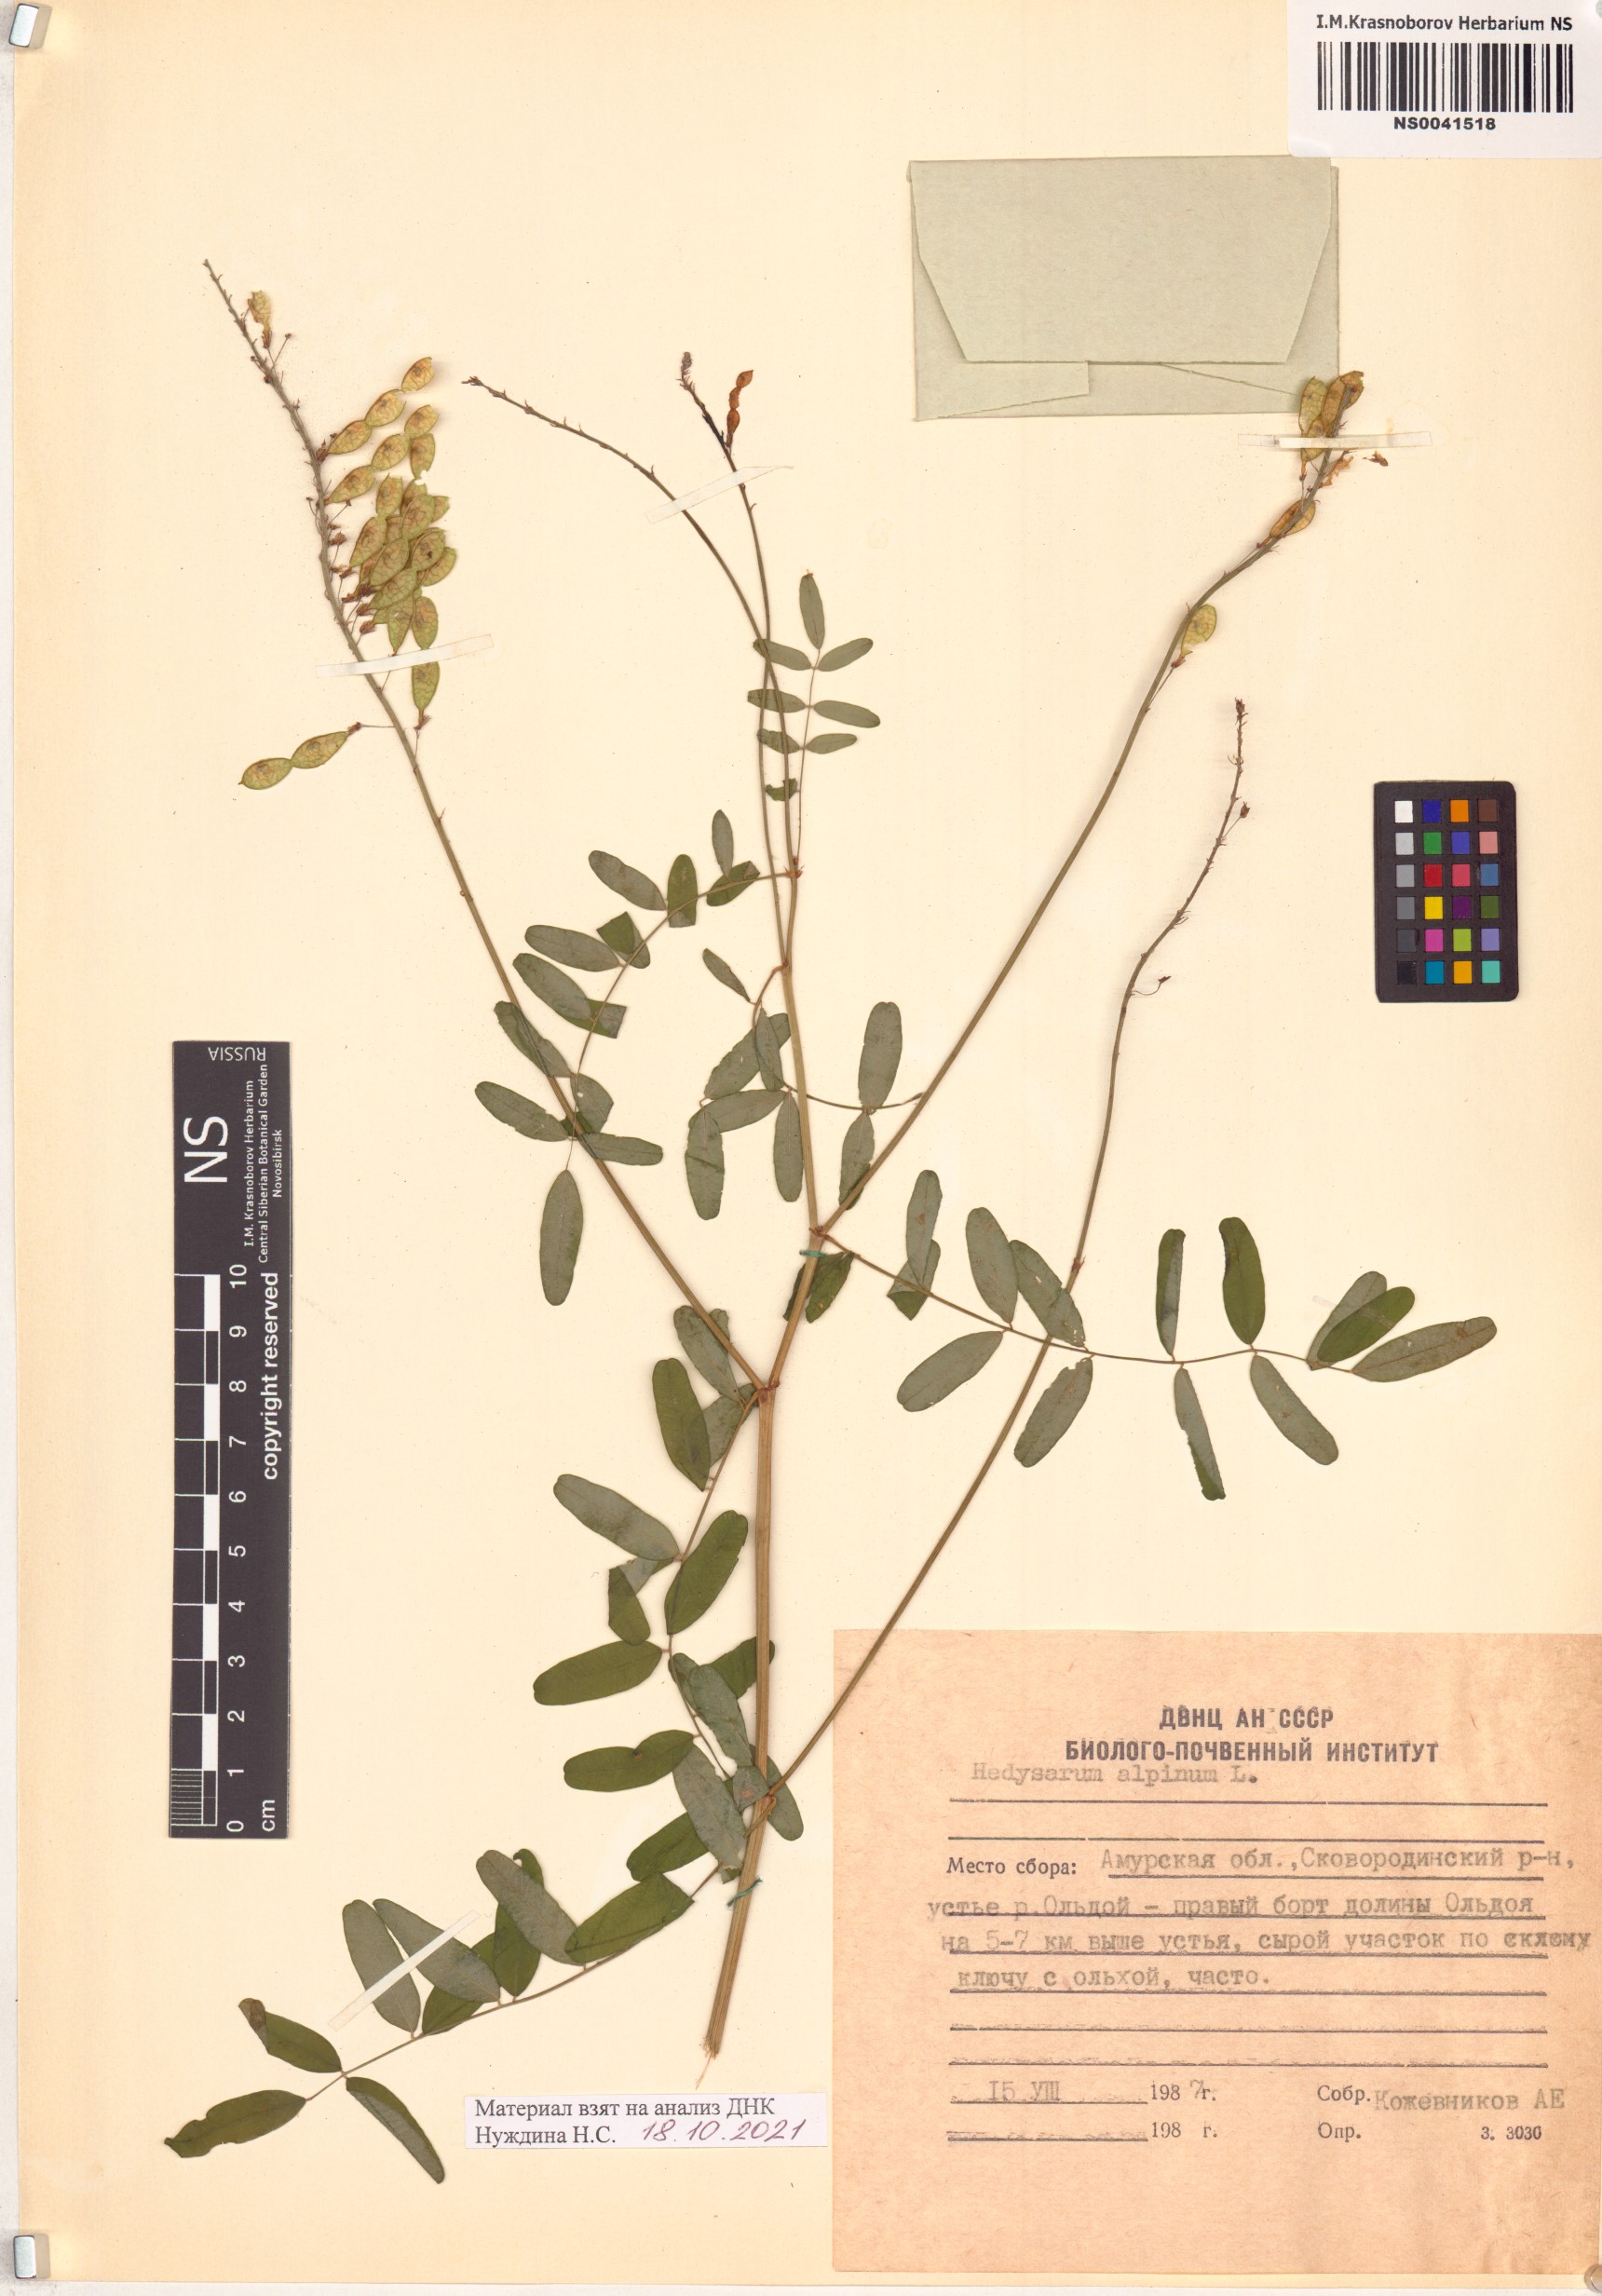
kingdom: Plantae
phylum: Tracheophyta
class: Magnoliopsida
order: Fabales
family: Fabaceae
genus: Hedysarum
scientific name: Hedysarum alpinum
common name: Alpine sweet-vetch
